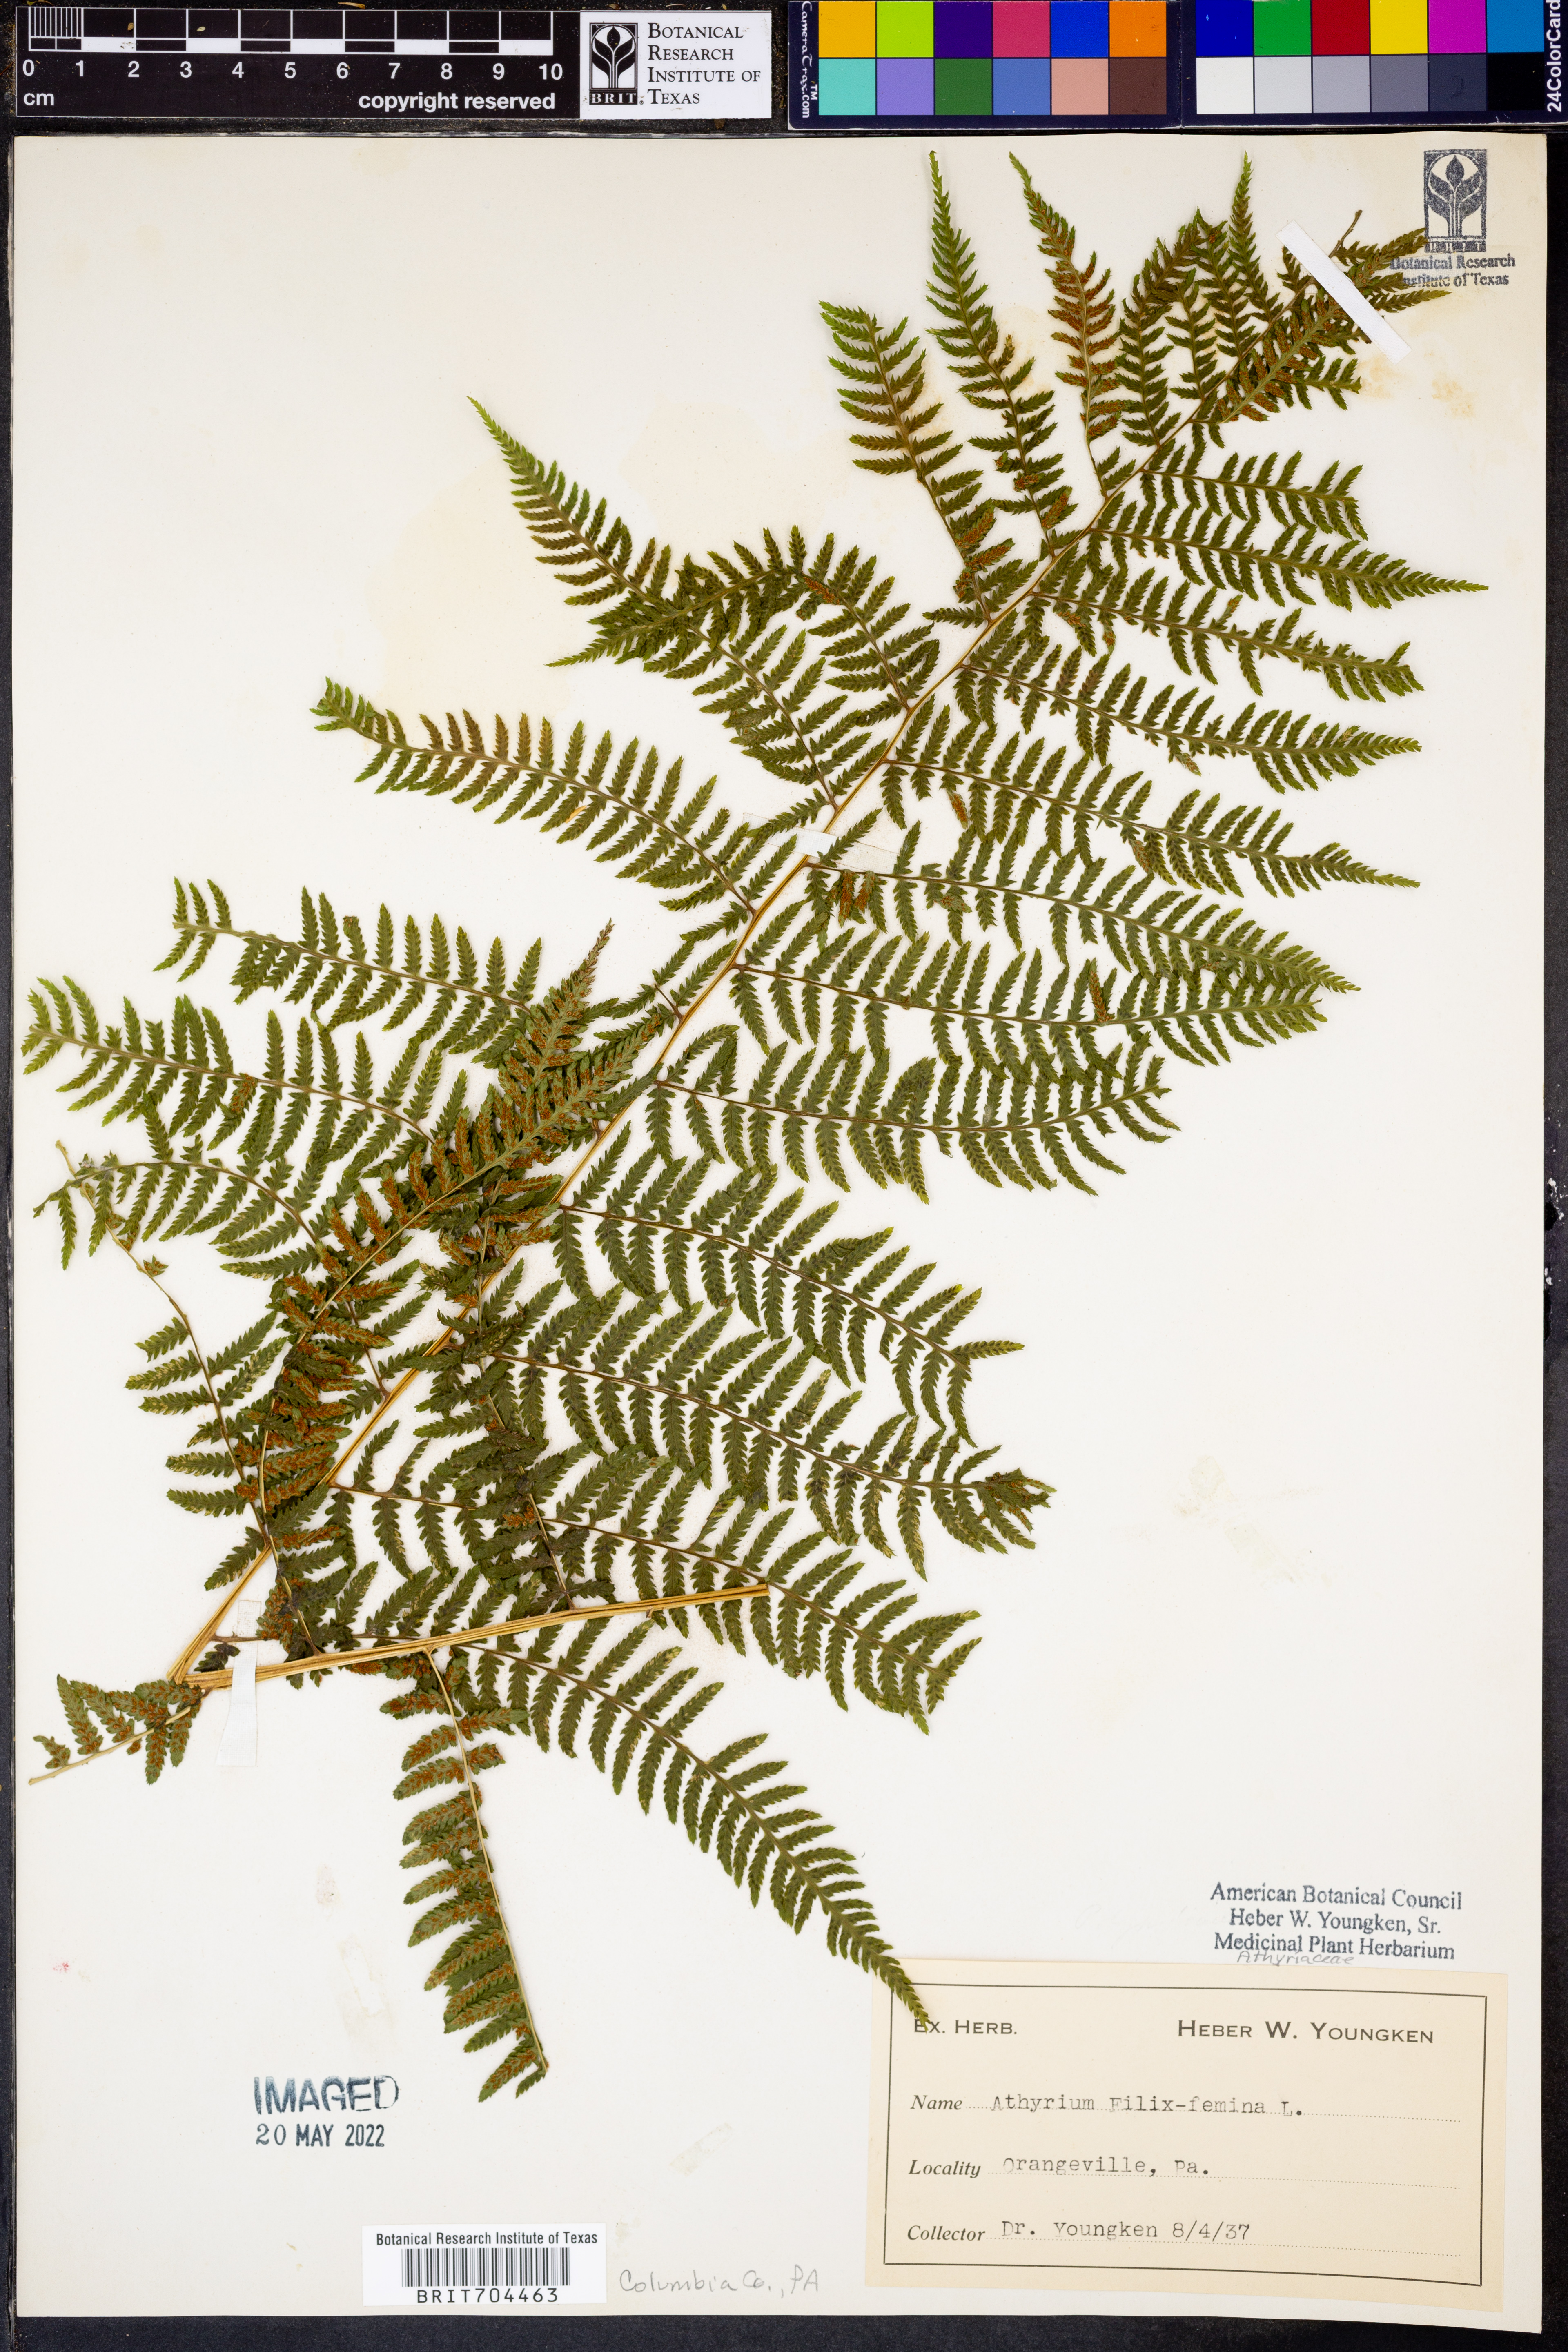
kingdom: Plantae
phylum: Tracheophyta
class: Polypodiopsida
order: Polypodiales
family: Athyriaceae
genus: Athyrium
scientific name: Athyrium filix-femina
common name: Lady fern
